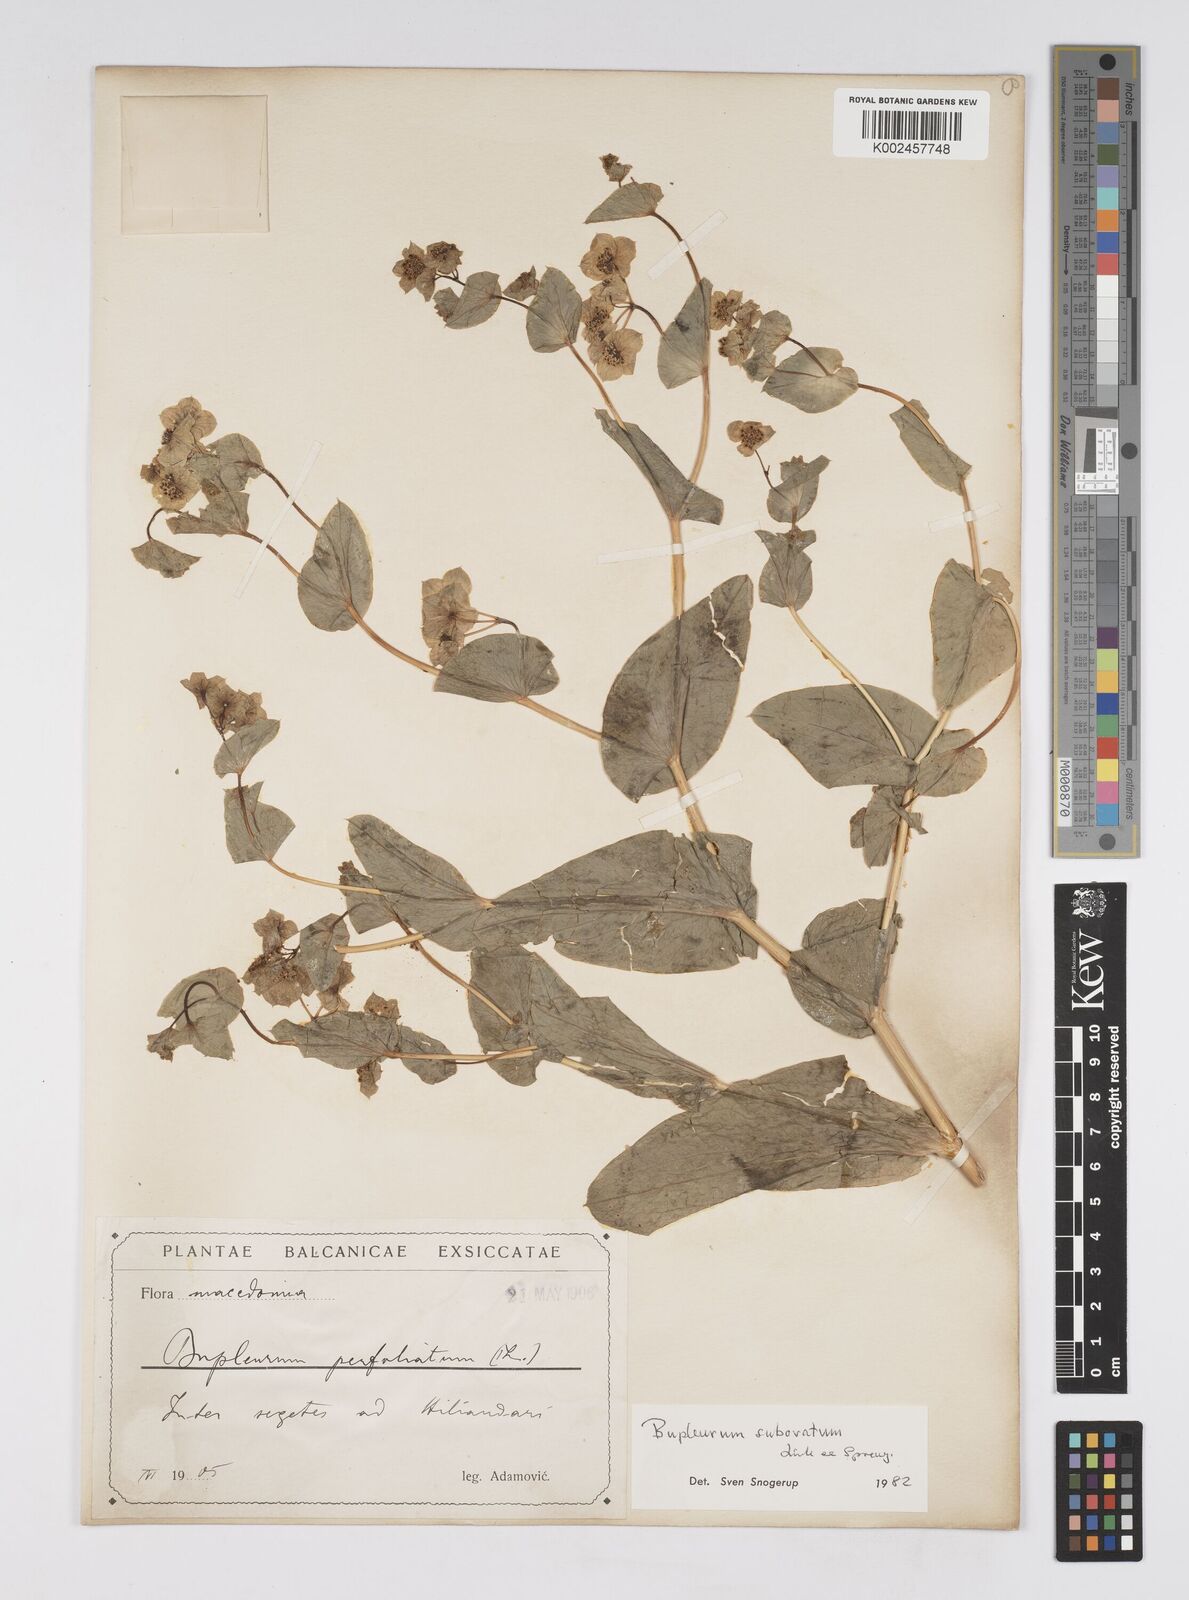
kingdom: Plantae
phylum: Tracheophyta
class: Magnoliopsida
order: Apiales
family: Apiaceae
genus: Bupleurum
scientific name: Bupleurum lancifolium
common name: False thorow-wax
